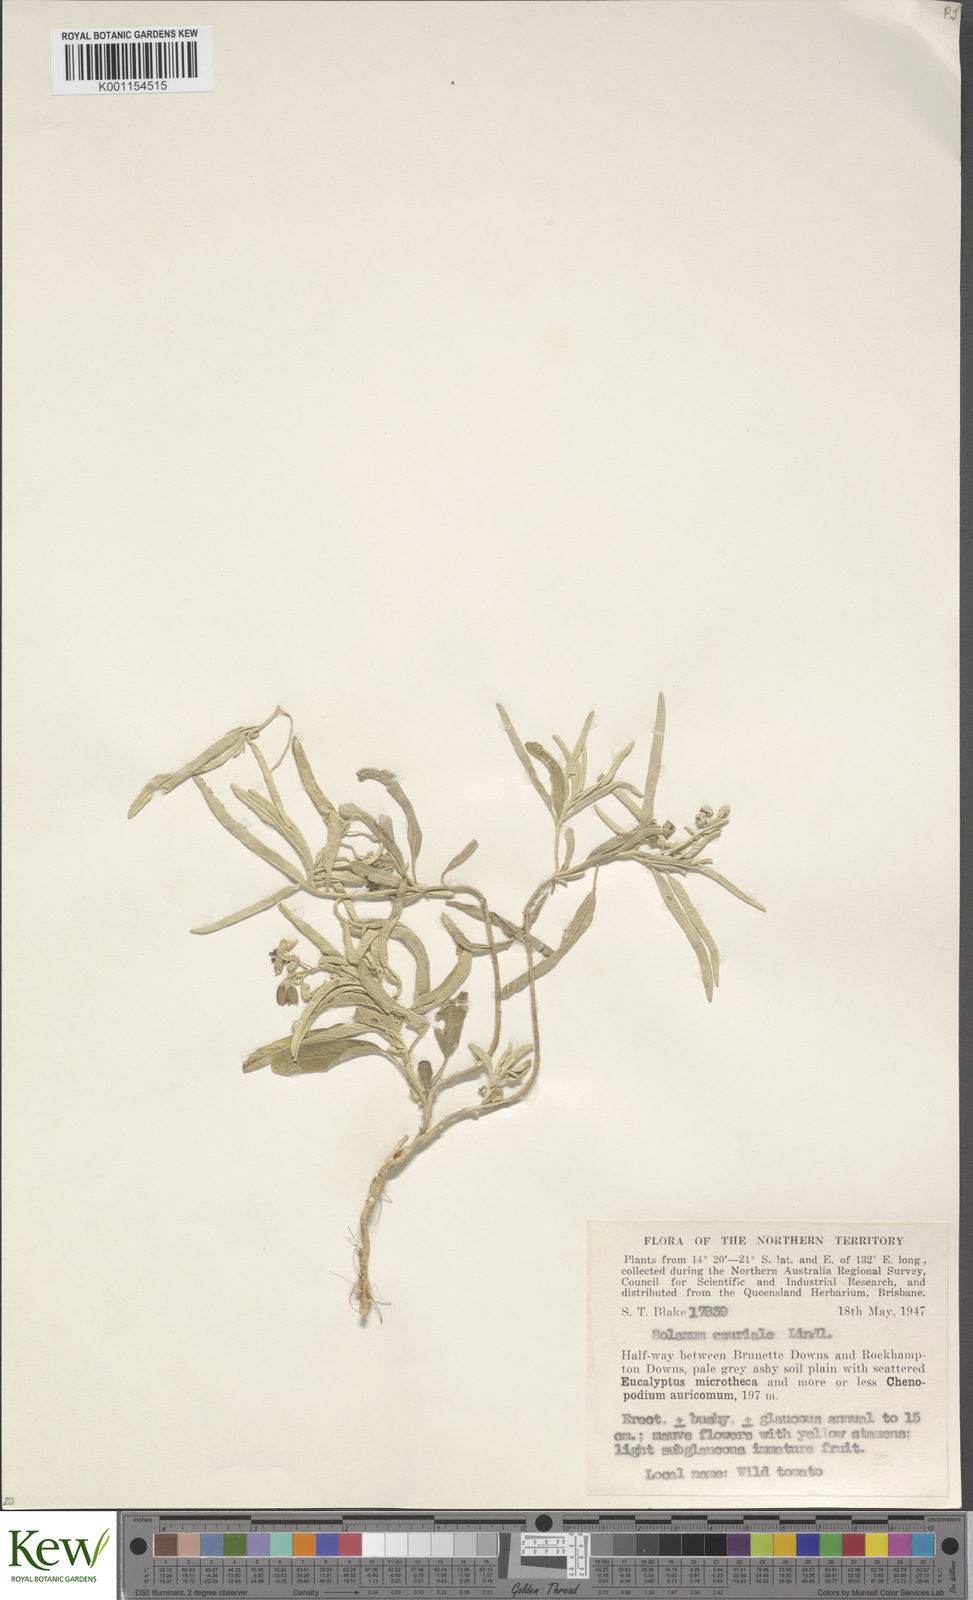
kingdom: Plantae
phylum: Tracheophyta
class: Magnoliopsida
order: Solanales
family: Solanaceae
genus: Solanum
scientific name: Solanum esuriale
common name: Wild tomato
